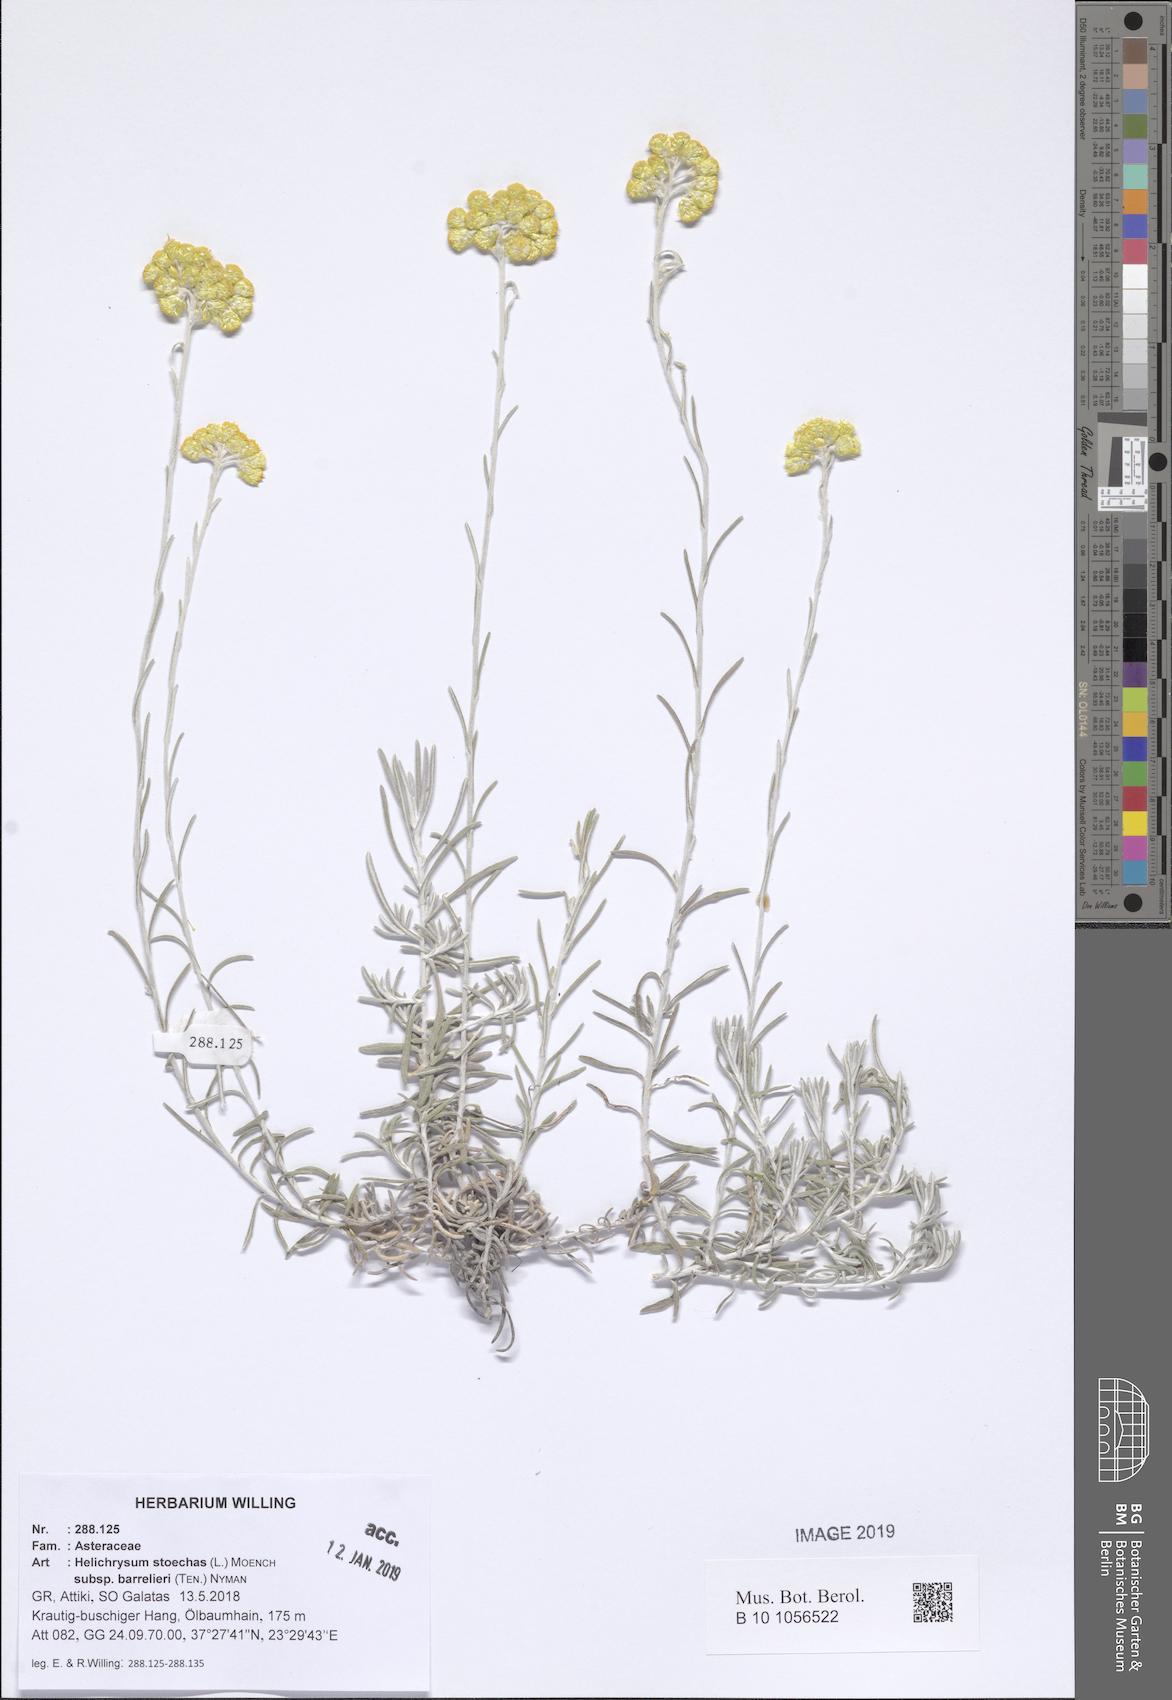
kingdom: Plantae
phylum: Tracheophyta
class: Magnoliopsida
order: Asterales
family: Asteraceae
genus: Helichrysum
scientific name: Helichrysum stoechas
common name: Goldilocks
